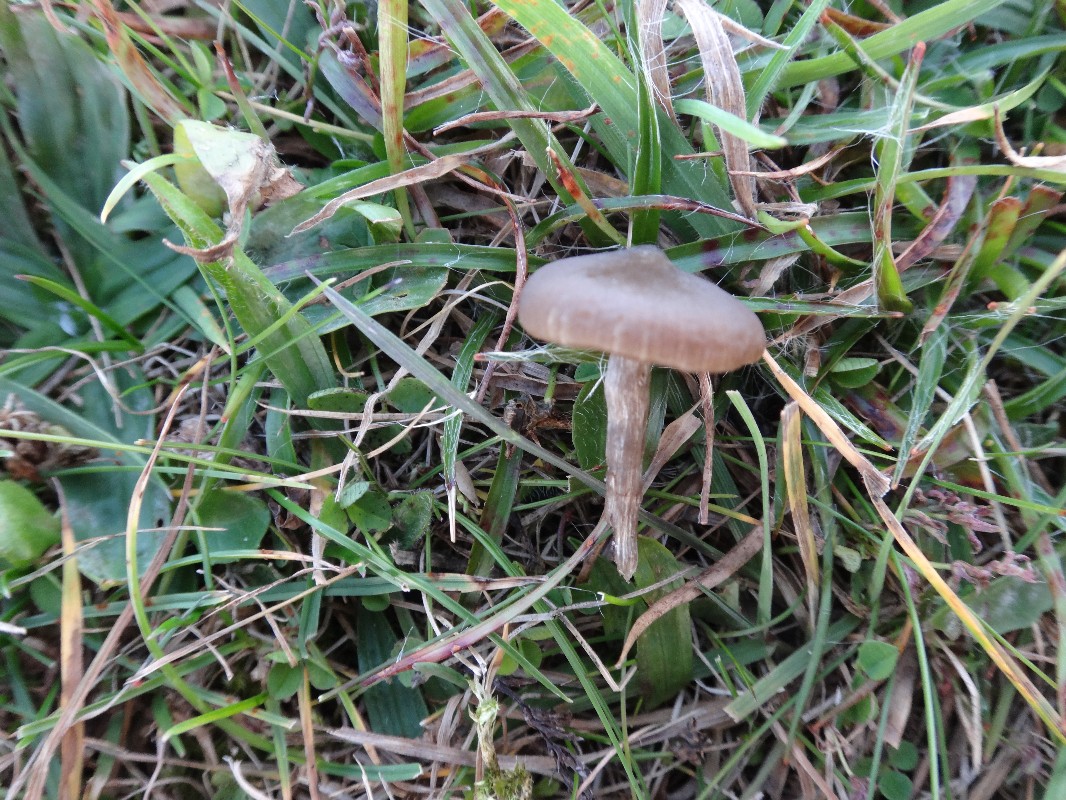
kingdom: Fungi
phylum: Basidiomycota
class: Agaricomycetes
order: Agaricales
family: Entolomataceae
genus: Entoloma
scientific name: Entoloma sericeum
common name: silkeglinsende rødblad
